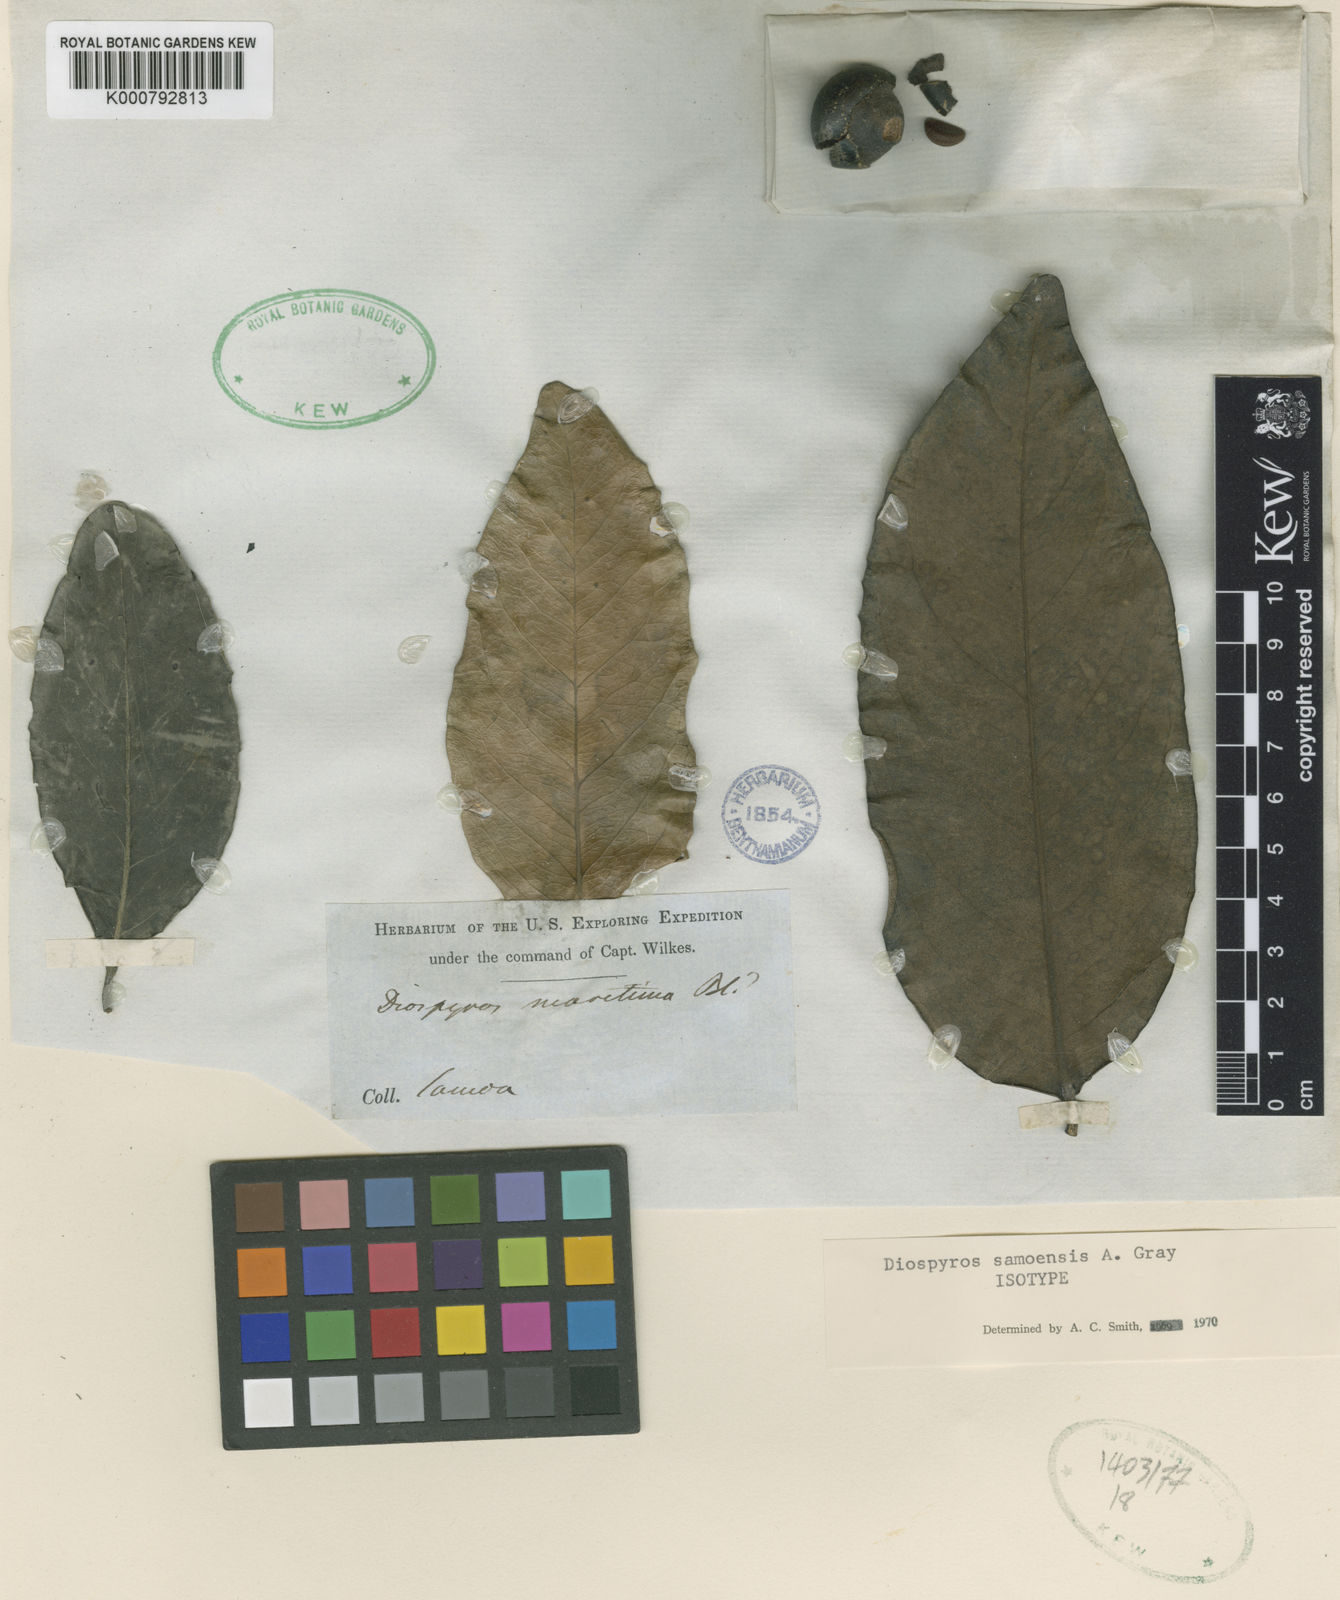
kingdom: Plantae
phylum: Tracheophyta
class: Magnoliopsida
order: Ericales
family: Ebenaceae
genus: Diospyros
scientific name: Diospyros samoensis
